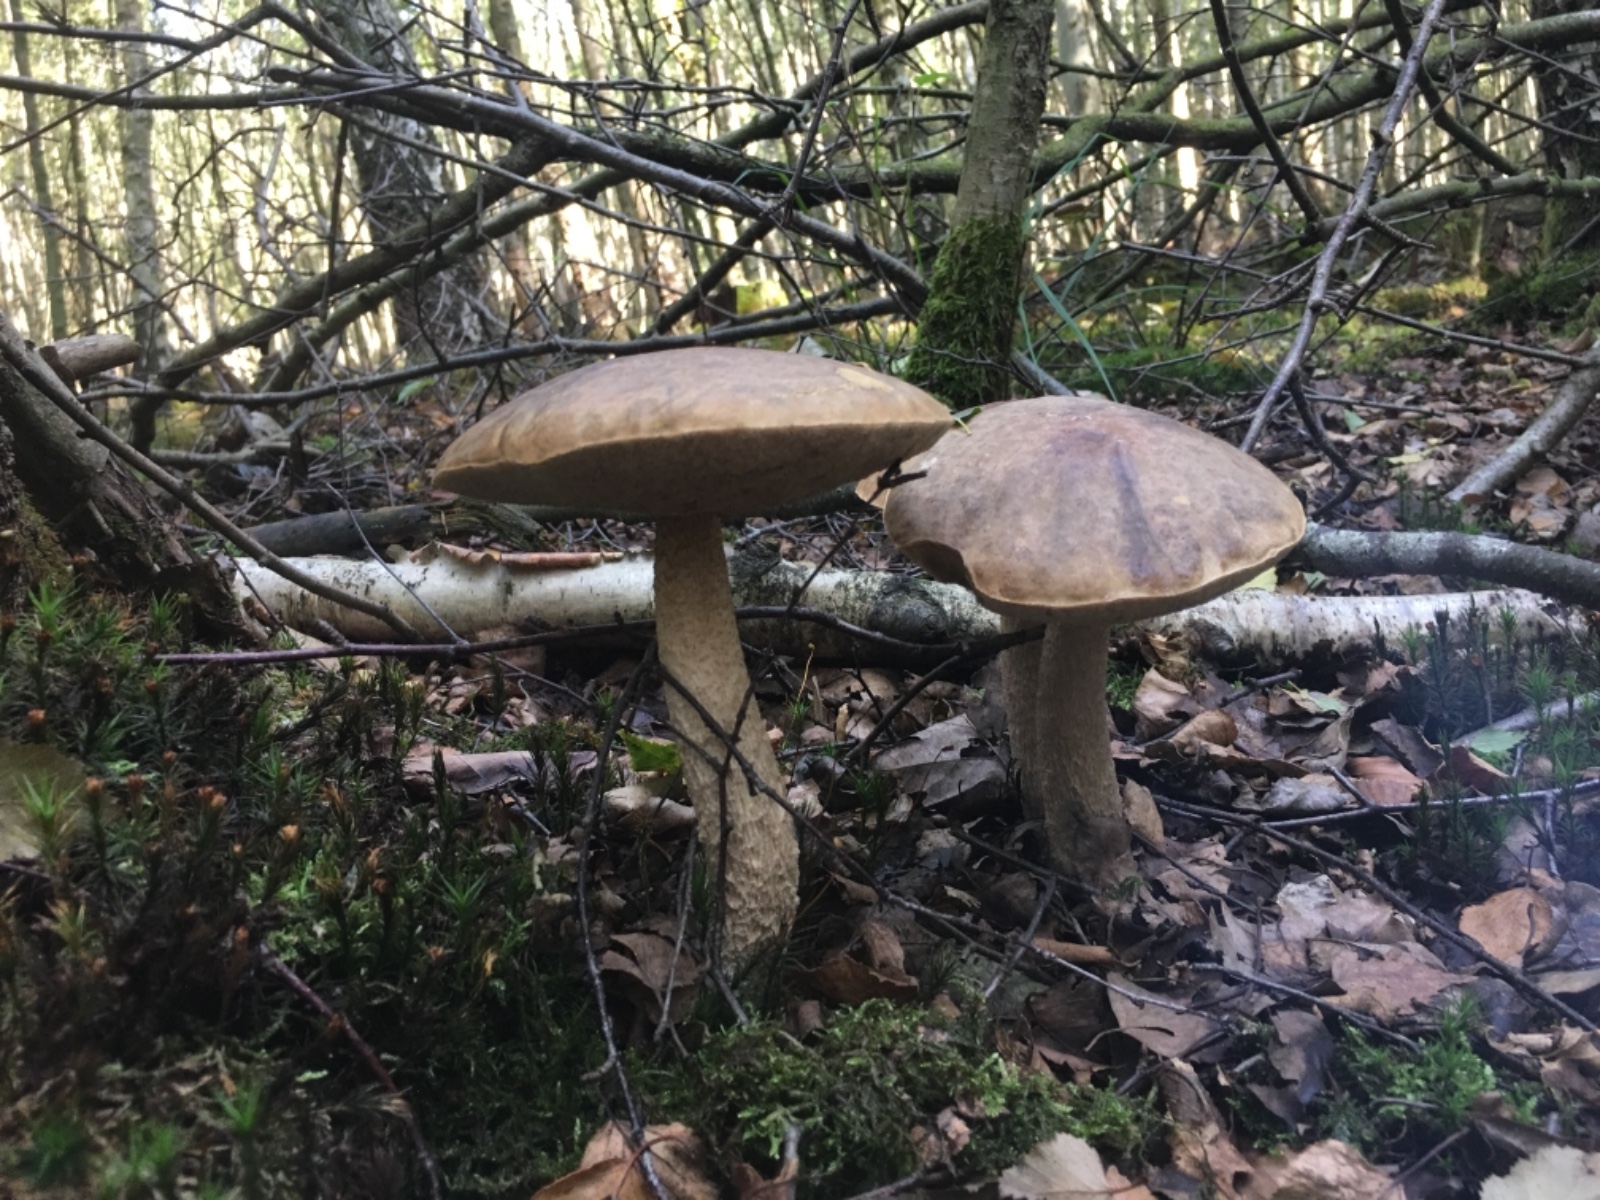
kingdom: Fungi
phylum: Basidiomycota
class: Agaricomycetes
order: Boletales
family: Boletaceae
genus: Leccinum
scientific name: Leccinum
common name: skælrørhat
